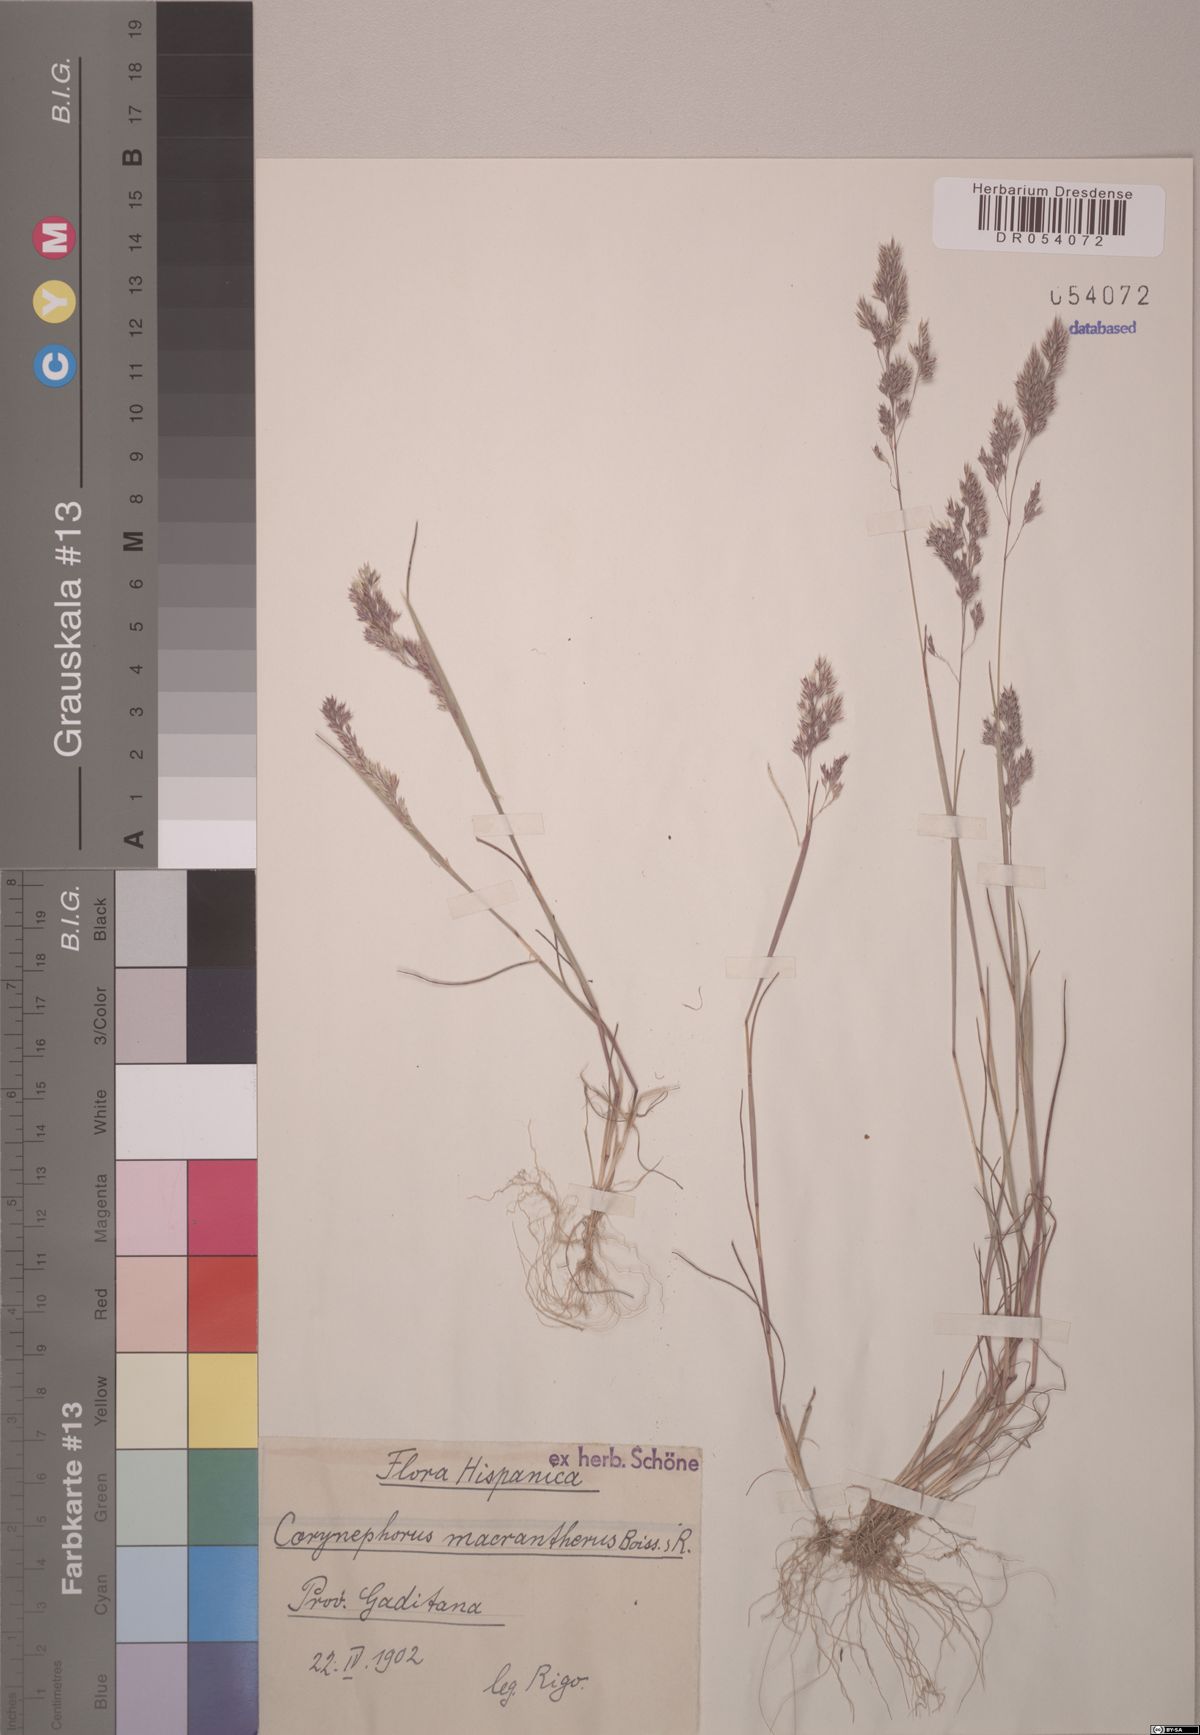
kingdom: Plantae
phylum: Tracheophyta
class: Liliopsida
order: Poales
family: Poaceae
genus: Corynephorus
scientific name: Corynephorus macrantherus
